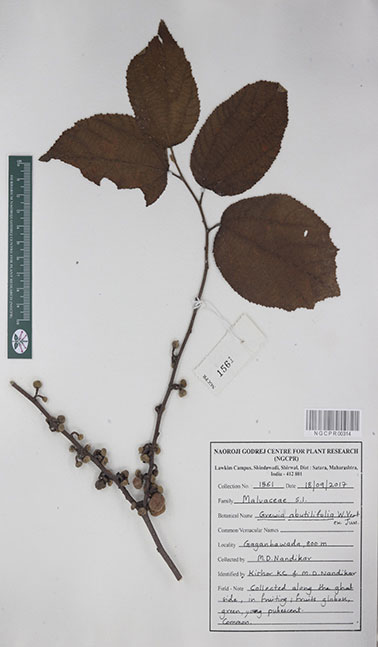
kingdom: Plantae
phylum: Tracheophyta
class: Magnoliopsida
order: Malvales
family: Malvaceae
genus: Grewia
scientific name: Grewia abutilifolia
